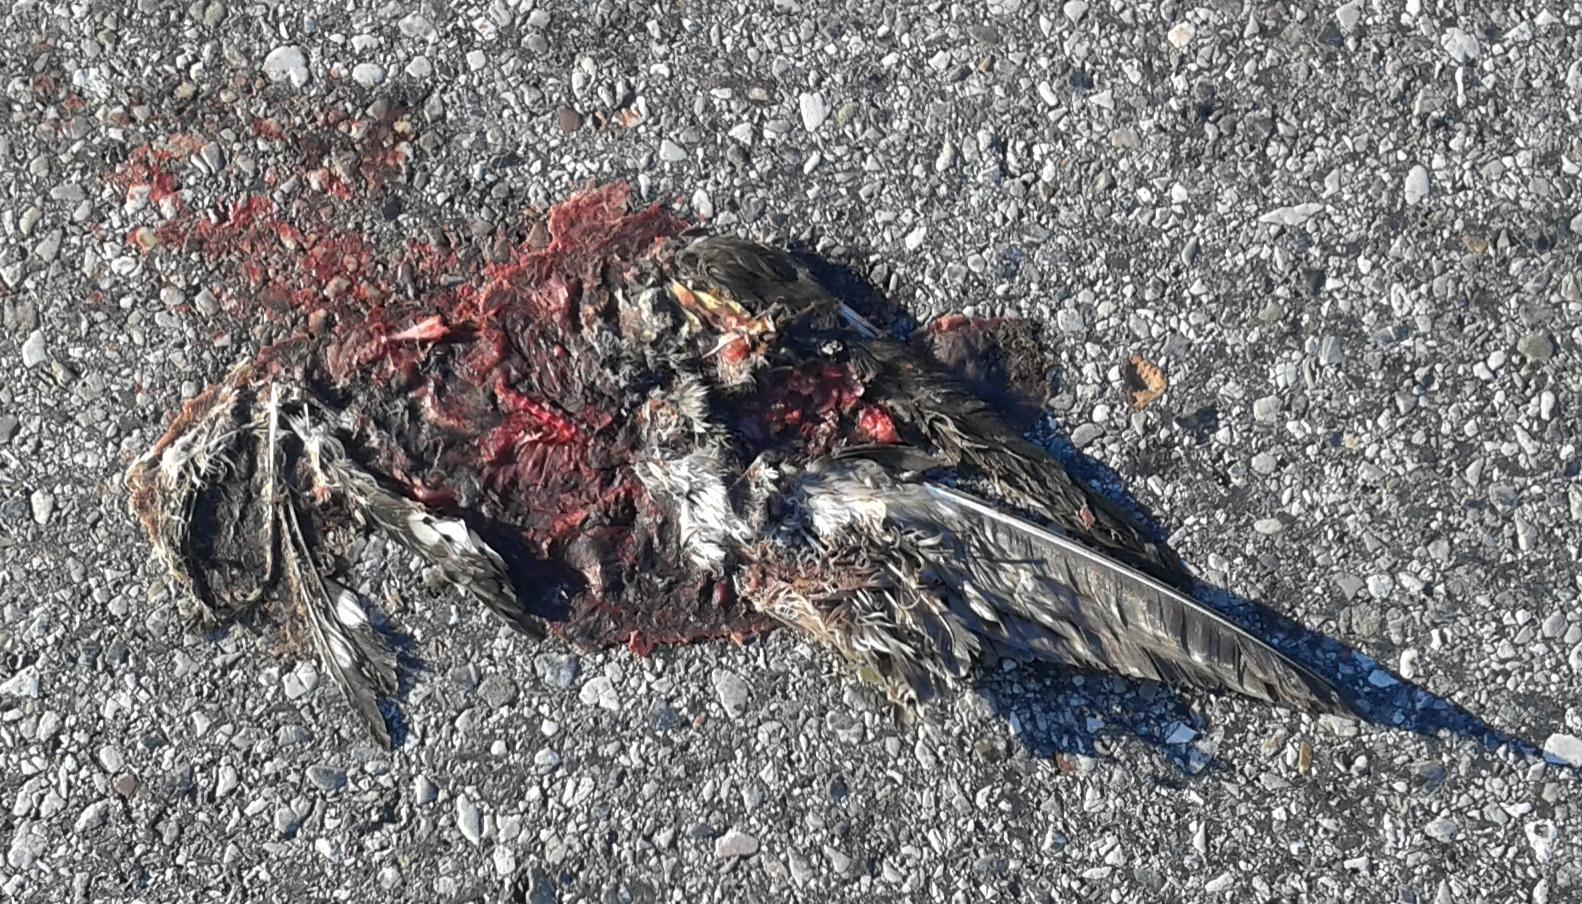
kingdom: Animalia
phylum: Chordata
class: Aves
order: Piciformes
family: Picidae
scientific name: Picidae
